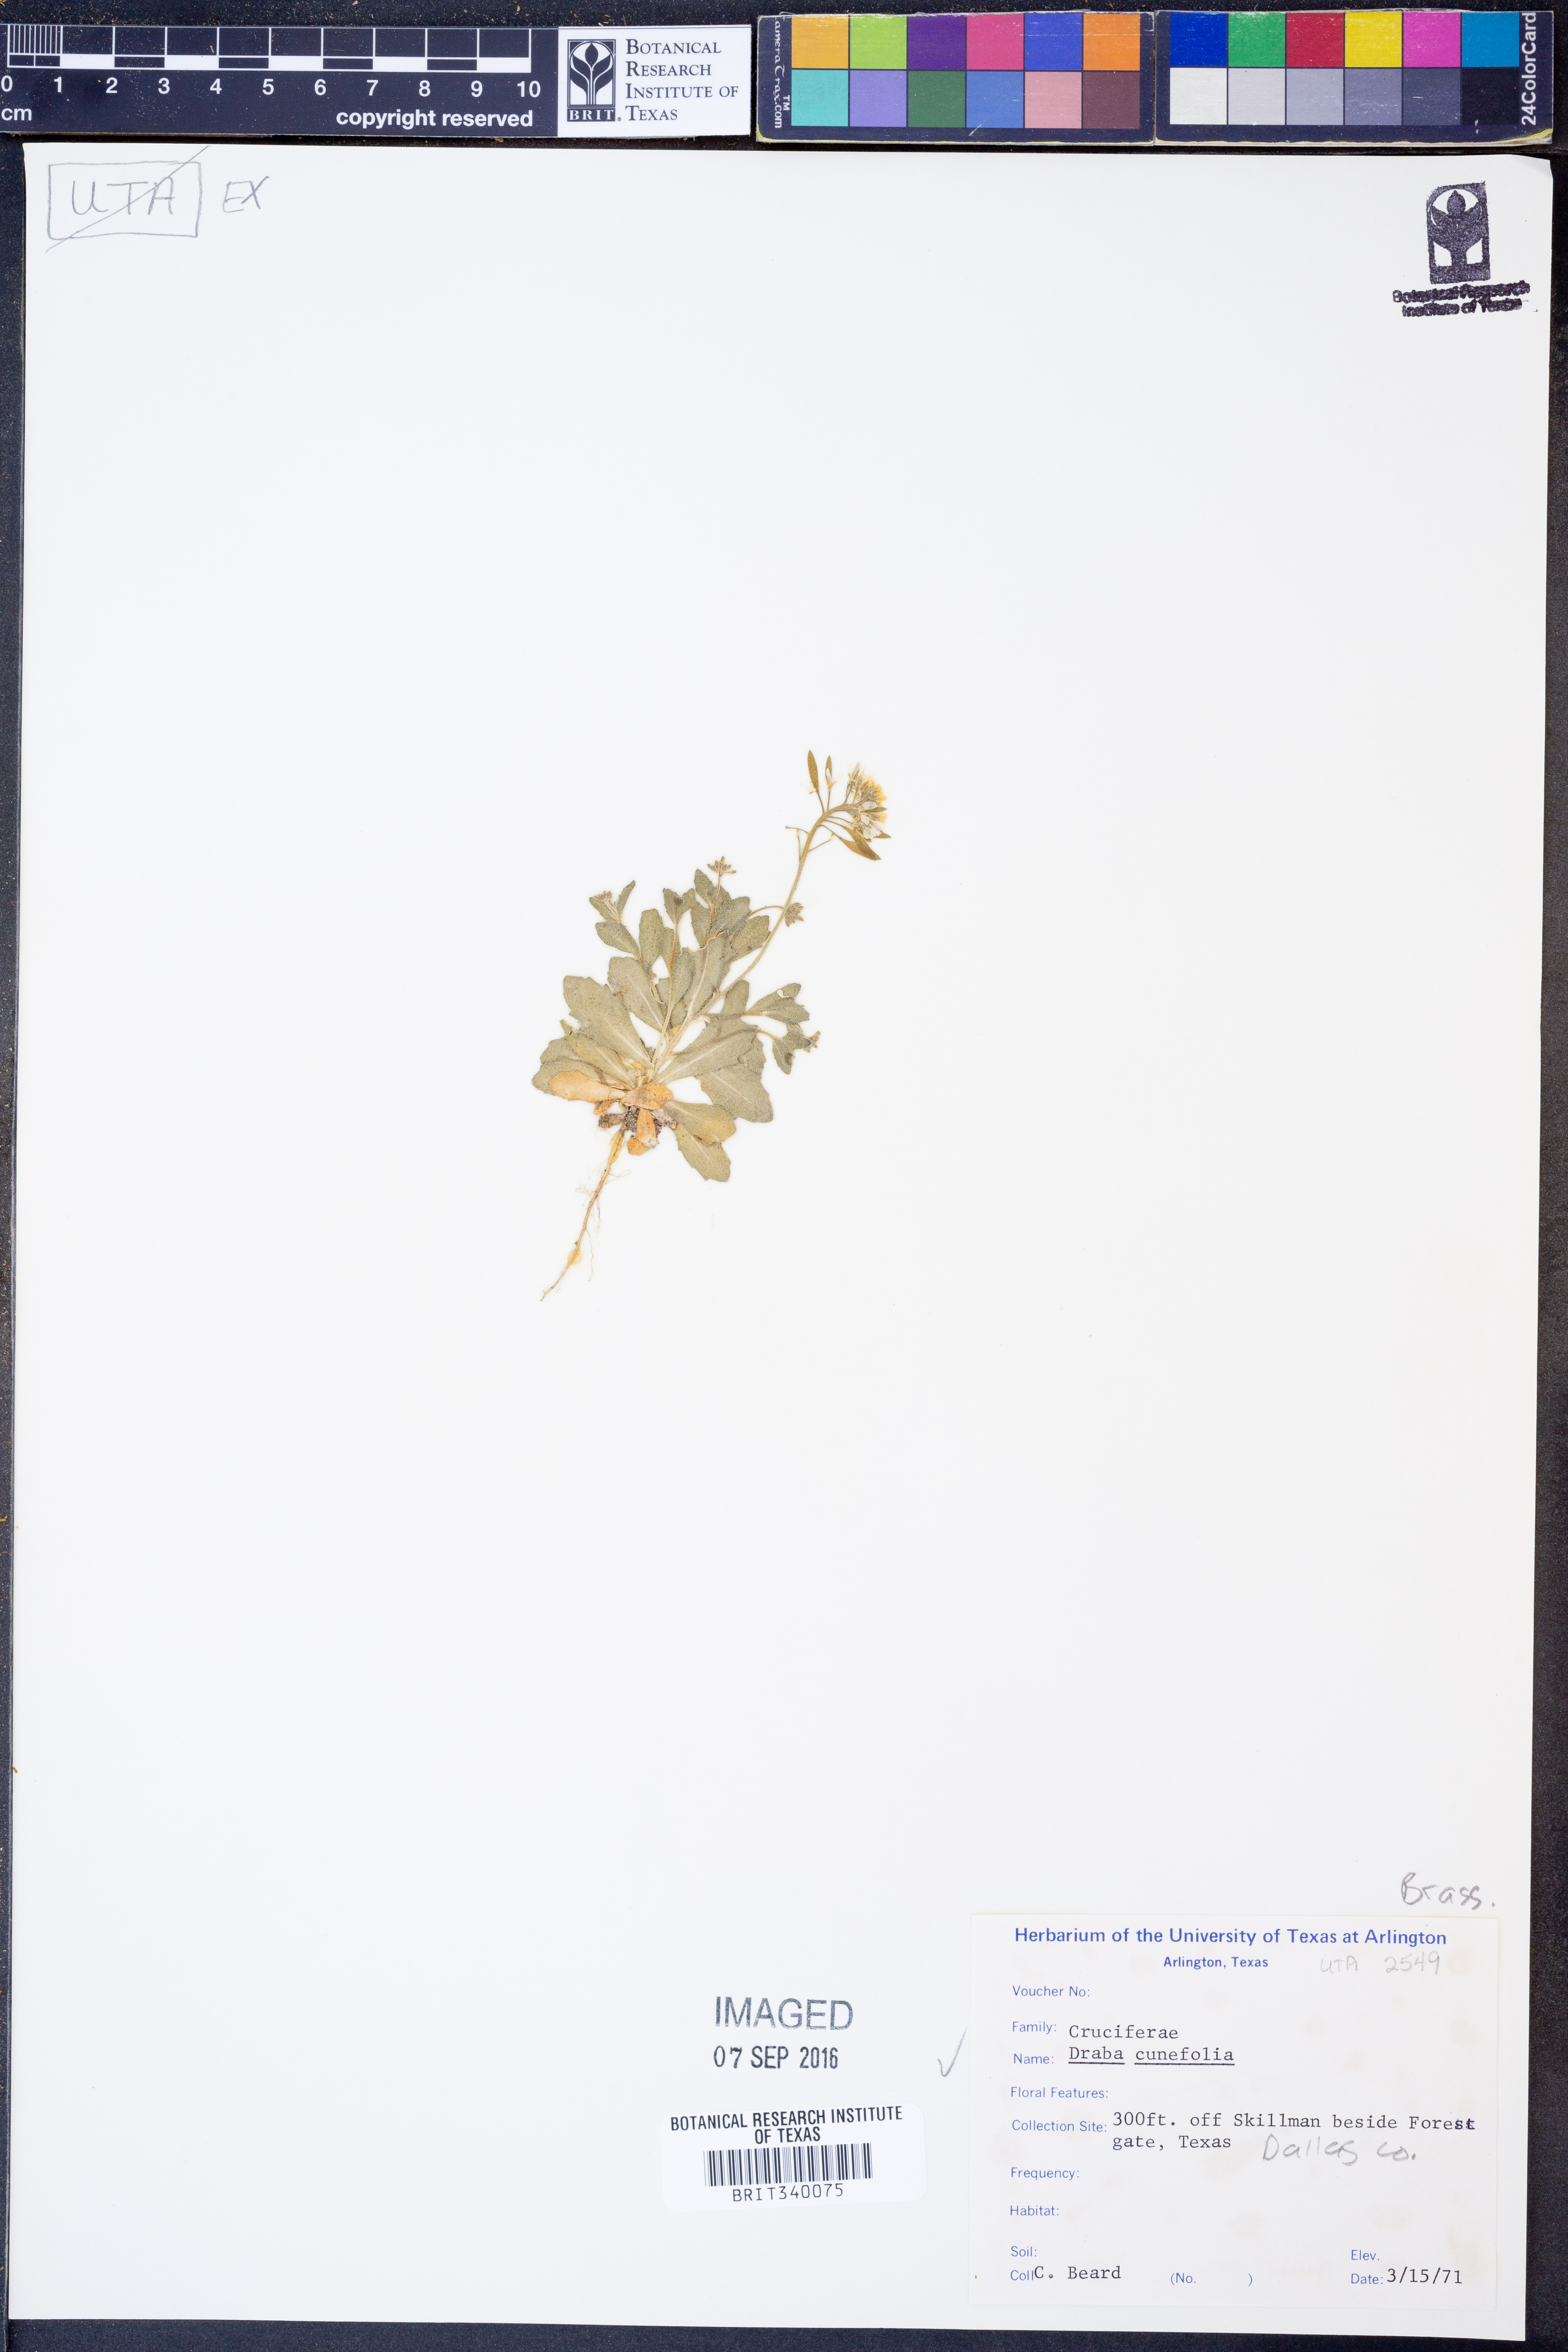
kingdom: Plantae
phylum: Tracheophyta
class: Magnoliopsida
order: Brassicales
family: Brassicaceae
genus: Tomostima
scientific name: Tomostima cuneifolia
